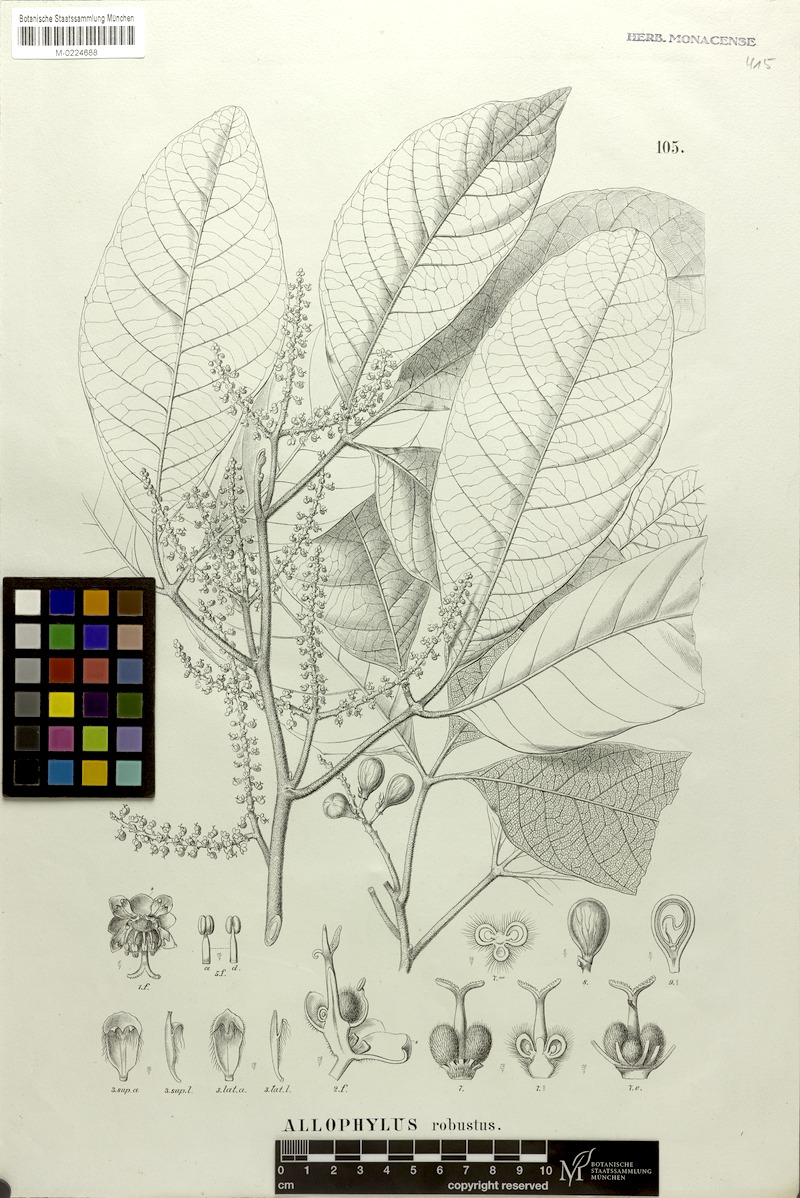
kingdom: Plantae
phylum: Tracheophyta
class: Magnoliopsida
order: Sapindales
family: Sapindaceae
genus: Allophylus
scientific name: Allophylus robustus
